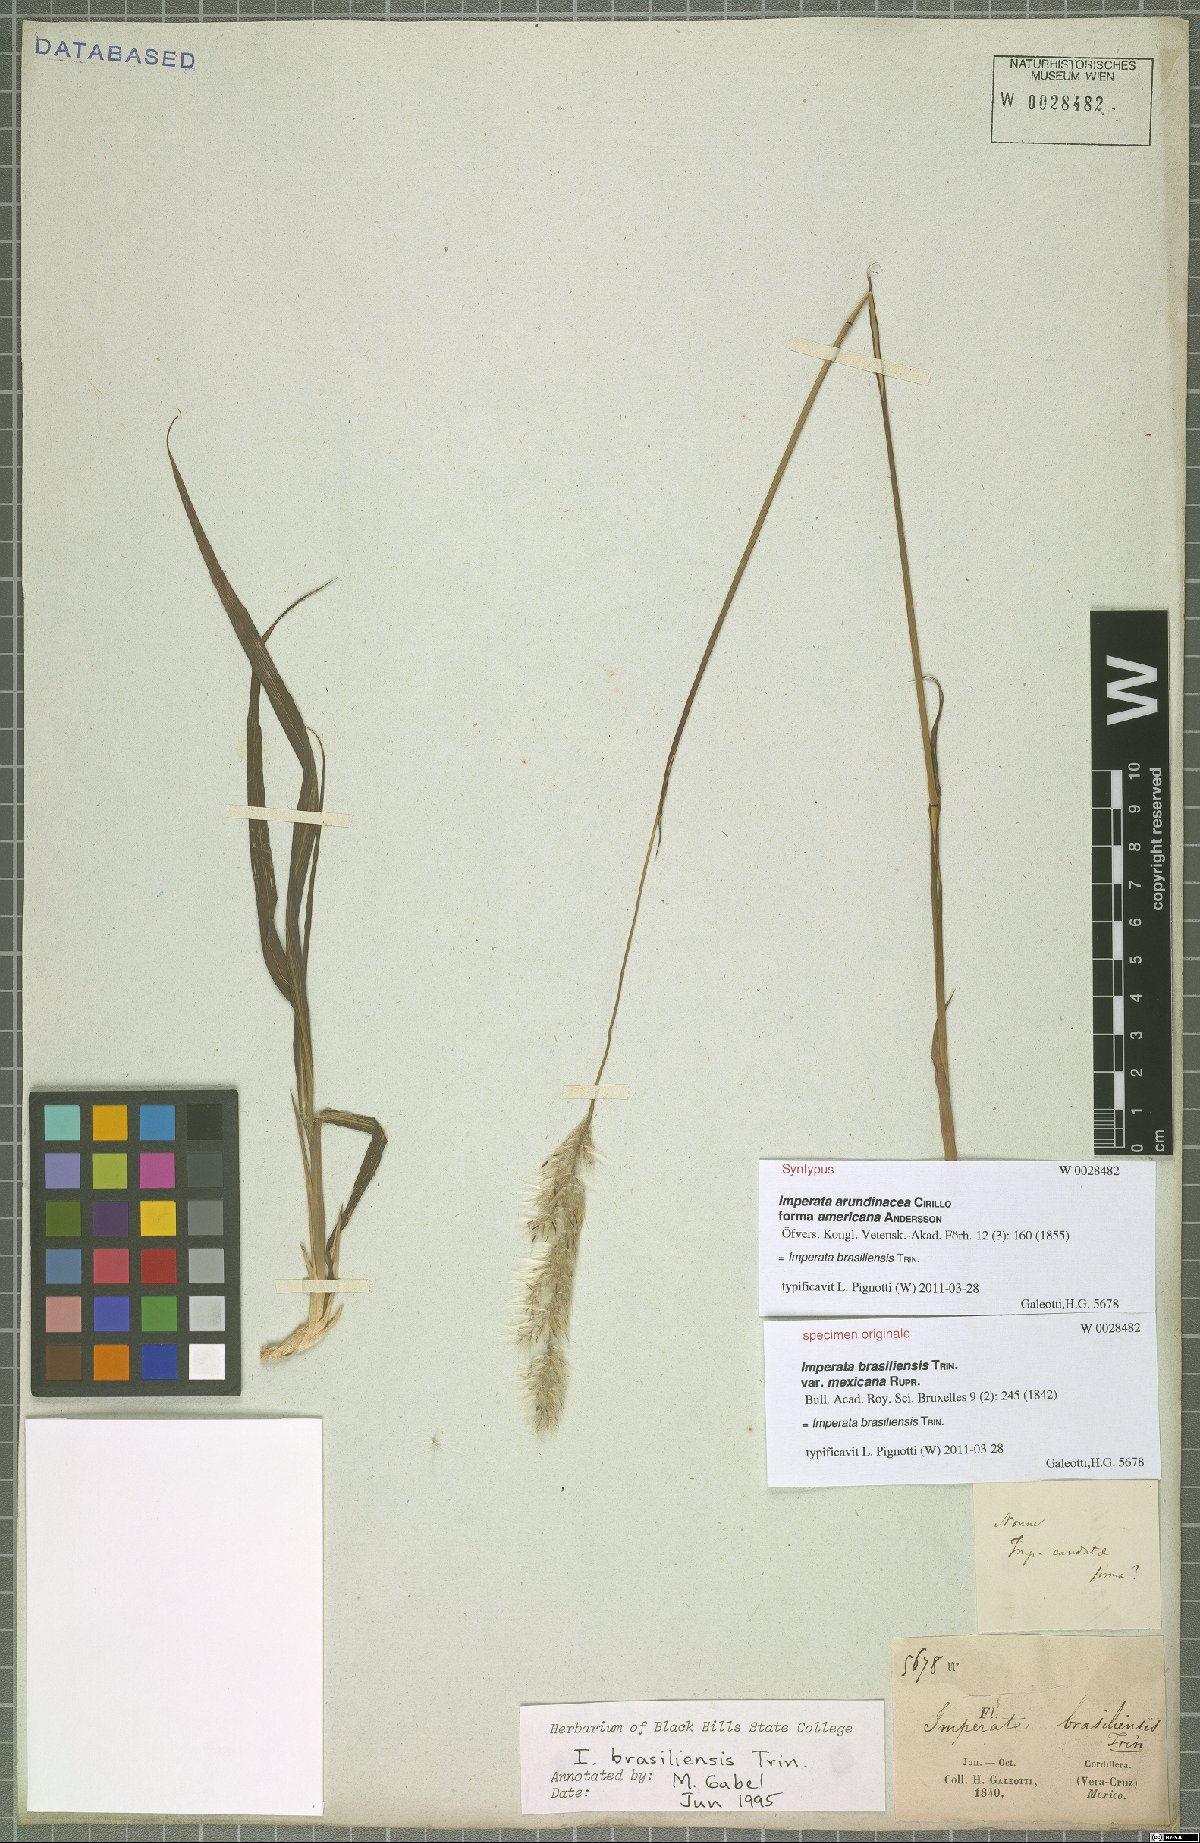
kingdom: Plantae
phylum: Tracheophyta
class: Liliopsida
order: Poales
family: Poaceae
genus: Imperata
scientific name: Imperata brasiliensis
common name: Brazilian satintail
